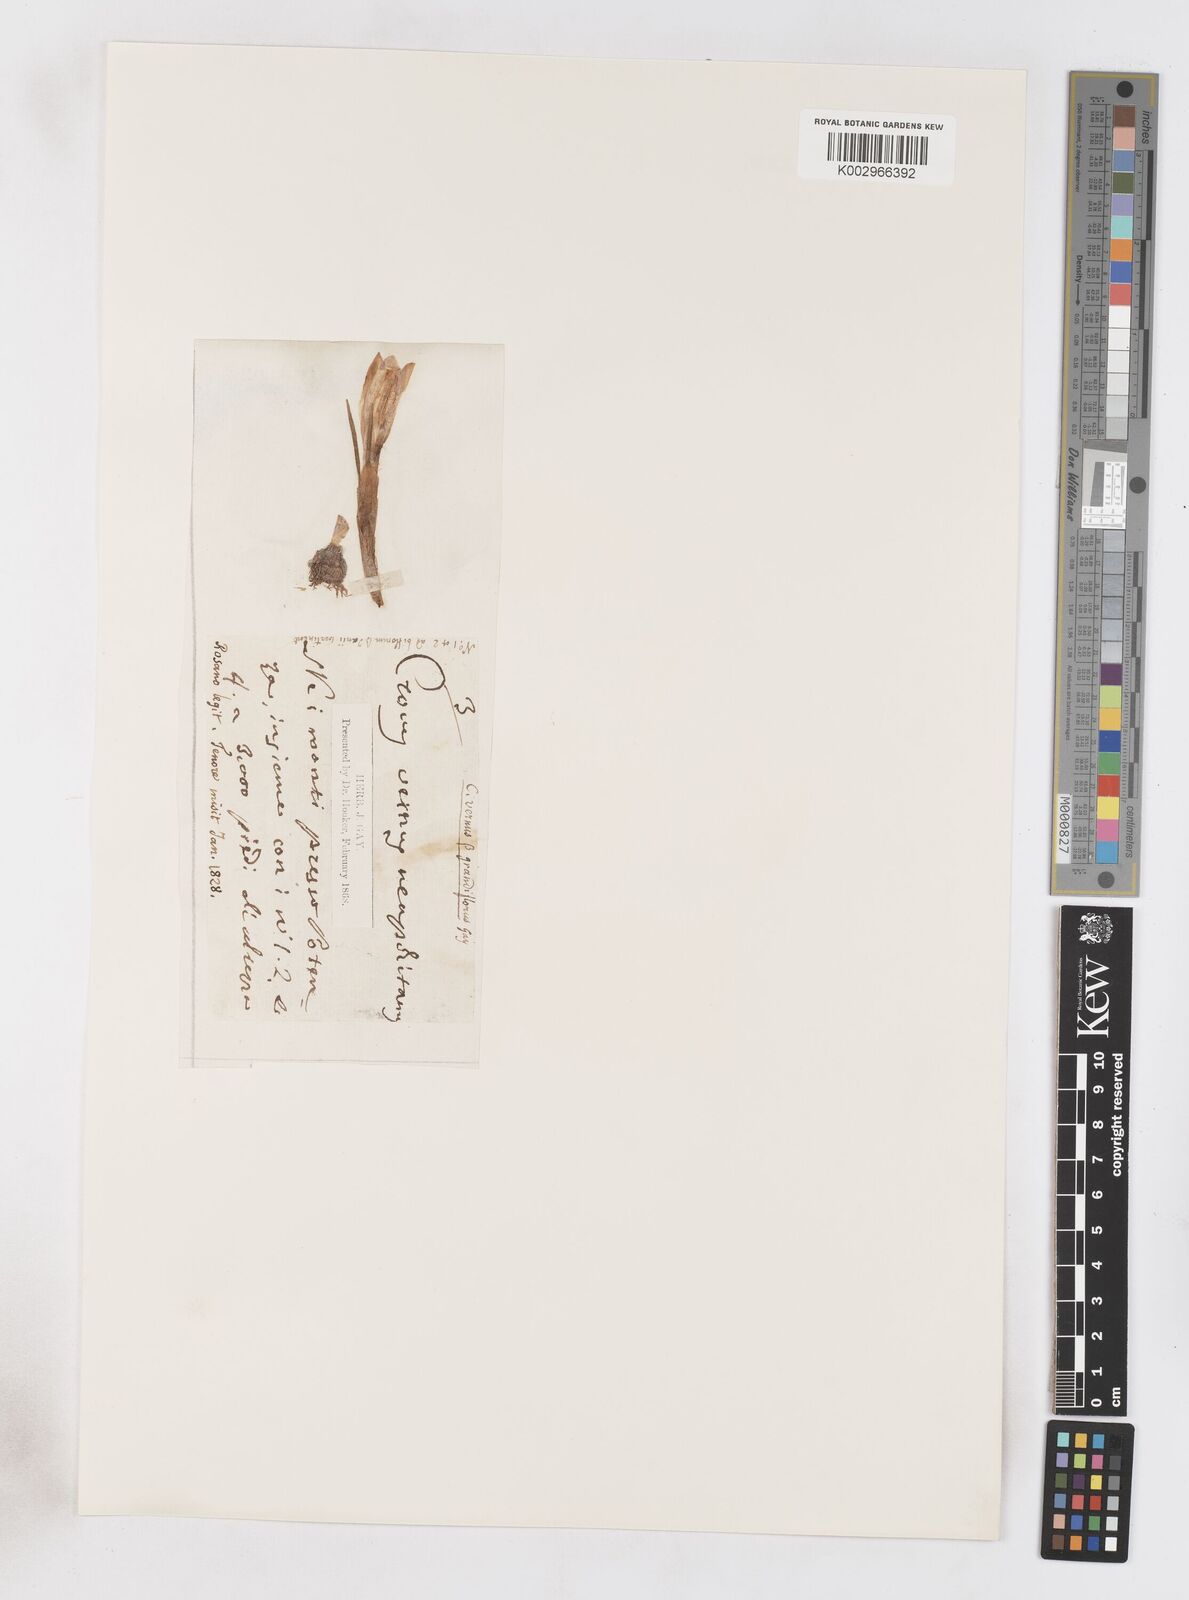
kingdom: Plantae
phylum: Tracheophyta
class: Liliopsida
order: Asparagales
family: Iridaceae
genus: Crocus
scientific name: Crocus vernus
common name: Spring crocus
